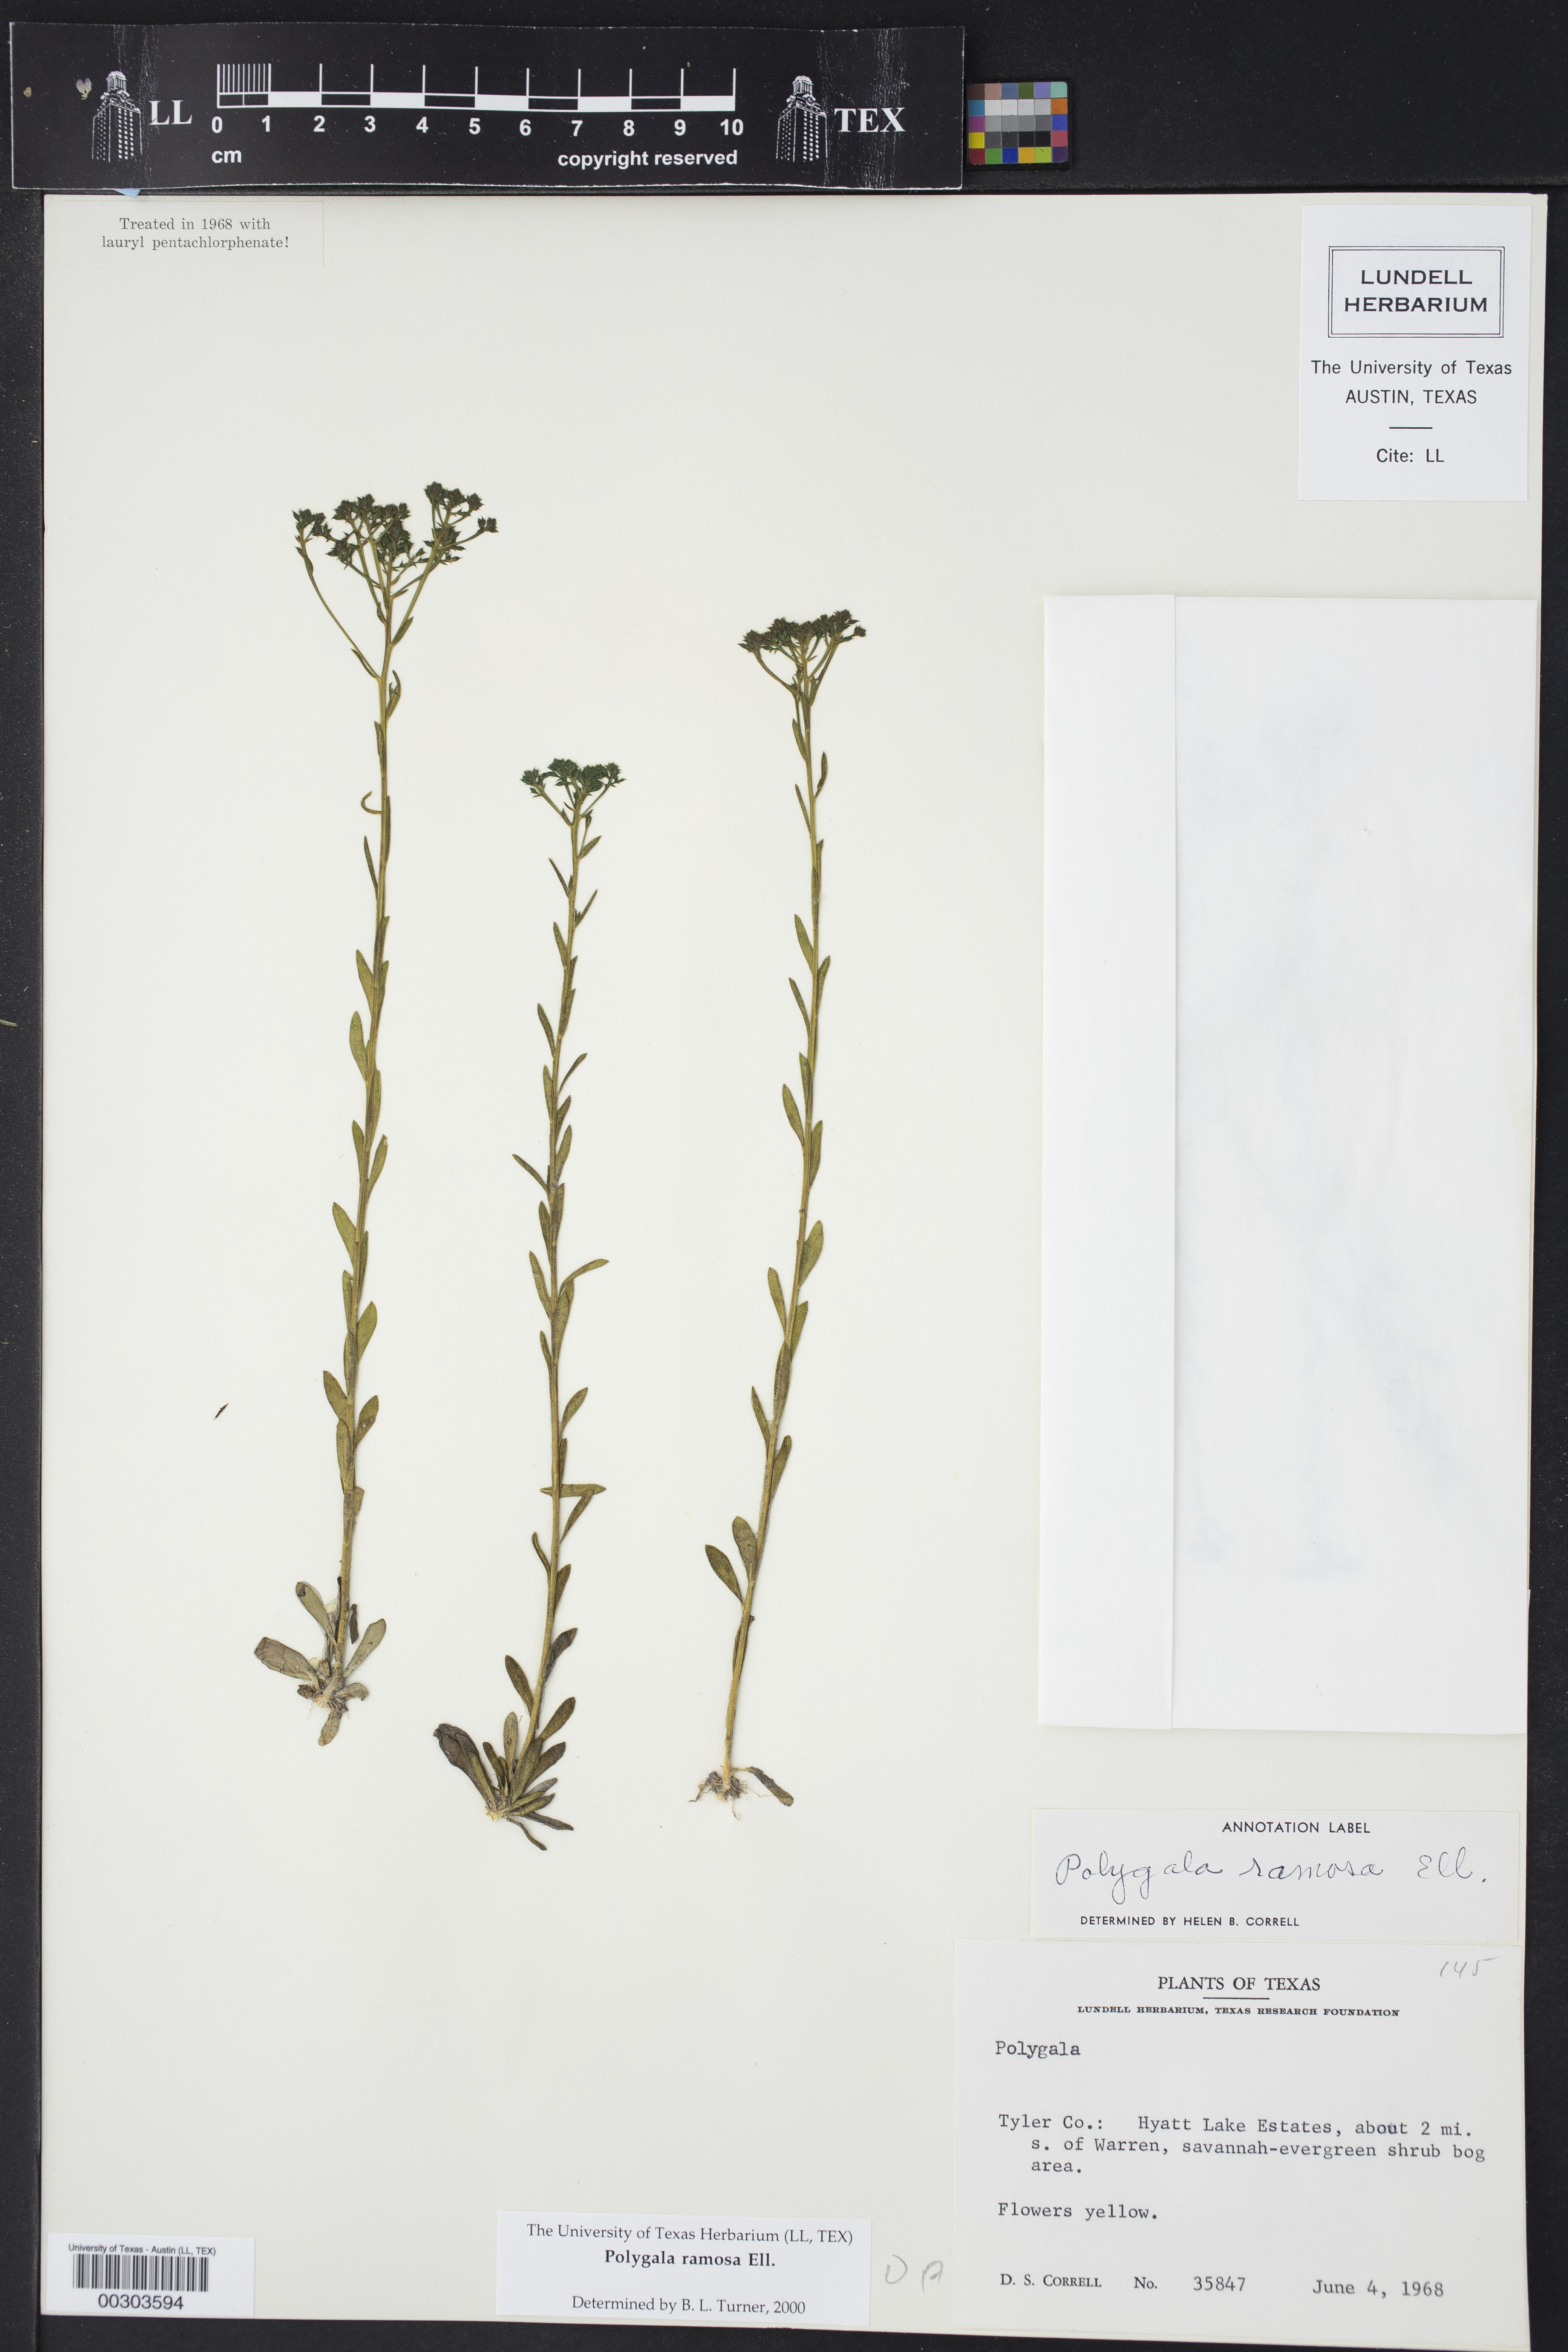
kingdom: Plantae
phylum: Tracheophyta
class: Magnoliopsida
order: Fabales
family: Polygalaceae
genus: Polygala
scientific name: Polygala ramosa
